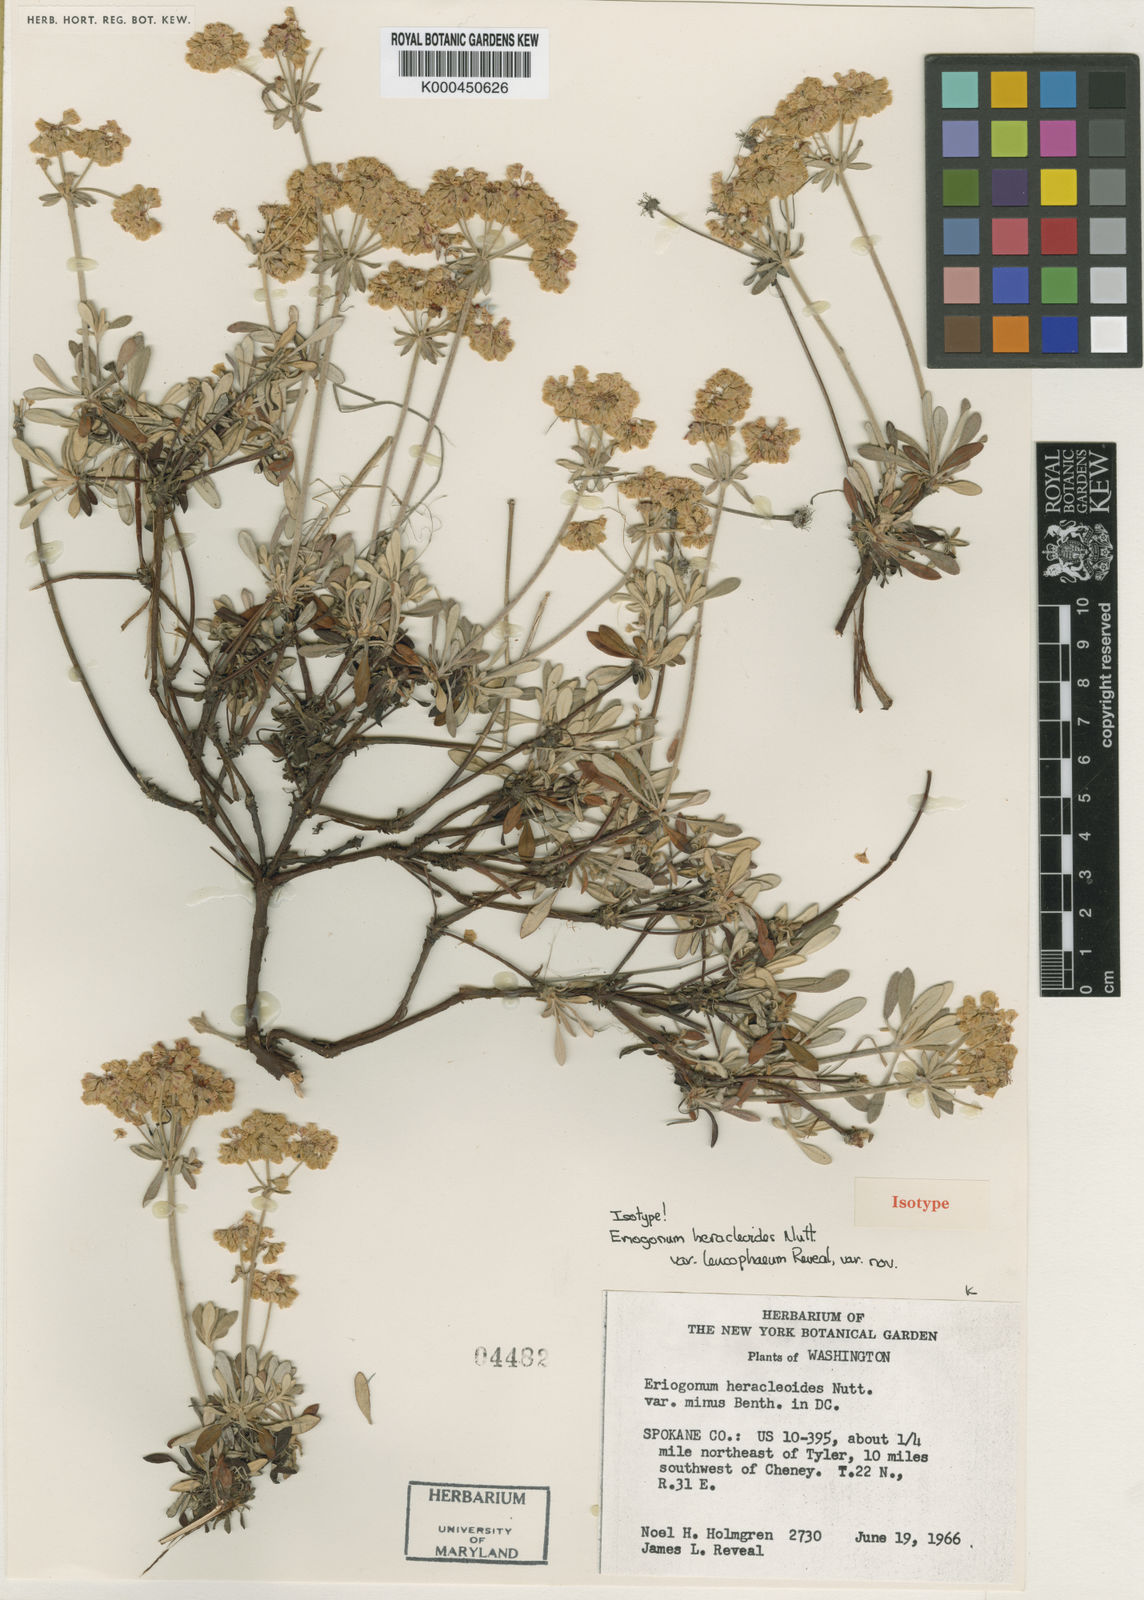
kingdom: Plantae
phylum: Tracheophyta
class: Magnoliopsida
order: Caryophyllales
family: Polygonaceae
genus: Eriogonum
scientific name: Eriogonum heracleoides
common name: Wyeth's buckwheat
